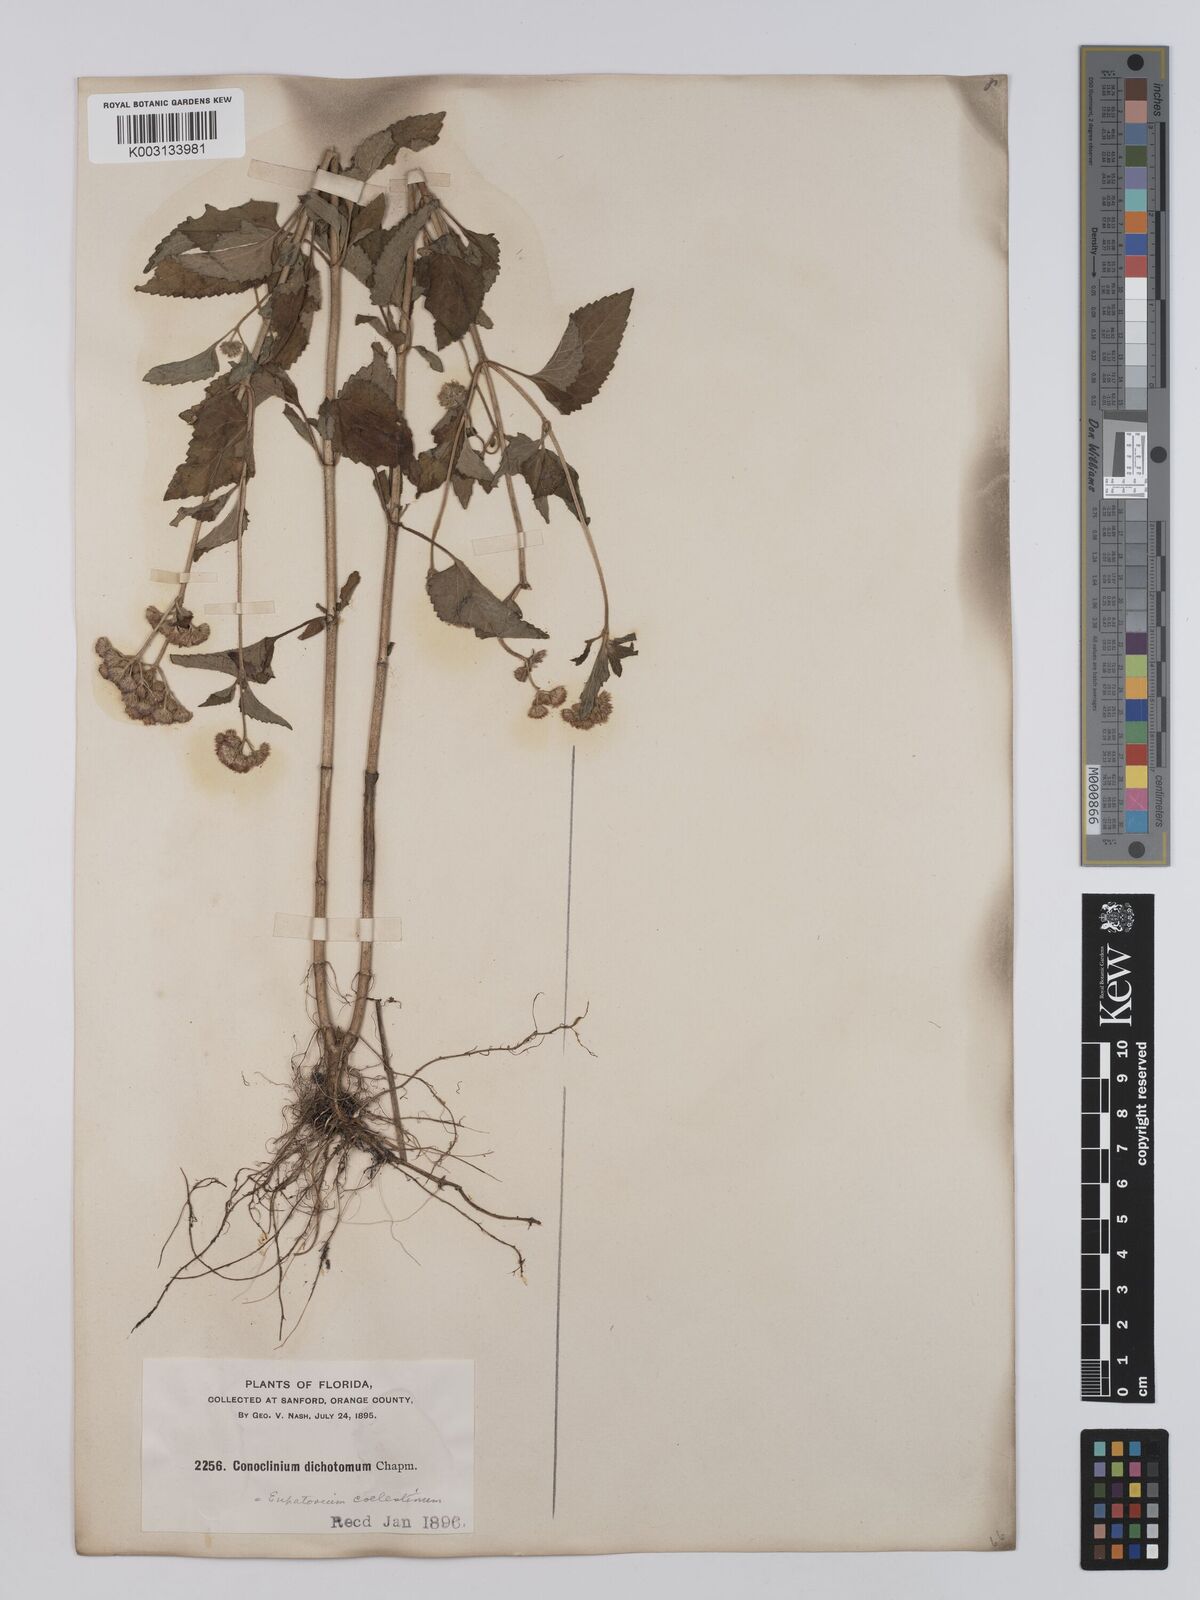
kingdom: Plantae
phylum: Tracheophyta
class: Magnoliopsida
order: Asterales
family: Asteraceae
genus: Conoclinium
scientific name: Conoclinium coelestinum
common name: Blue mistflower
